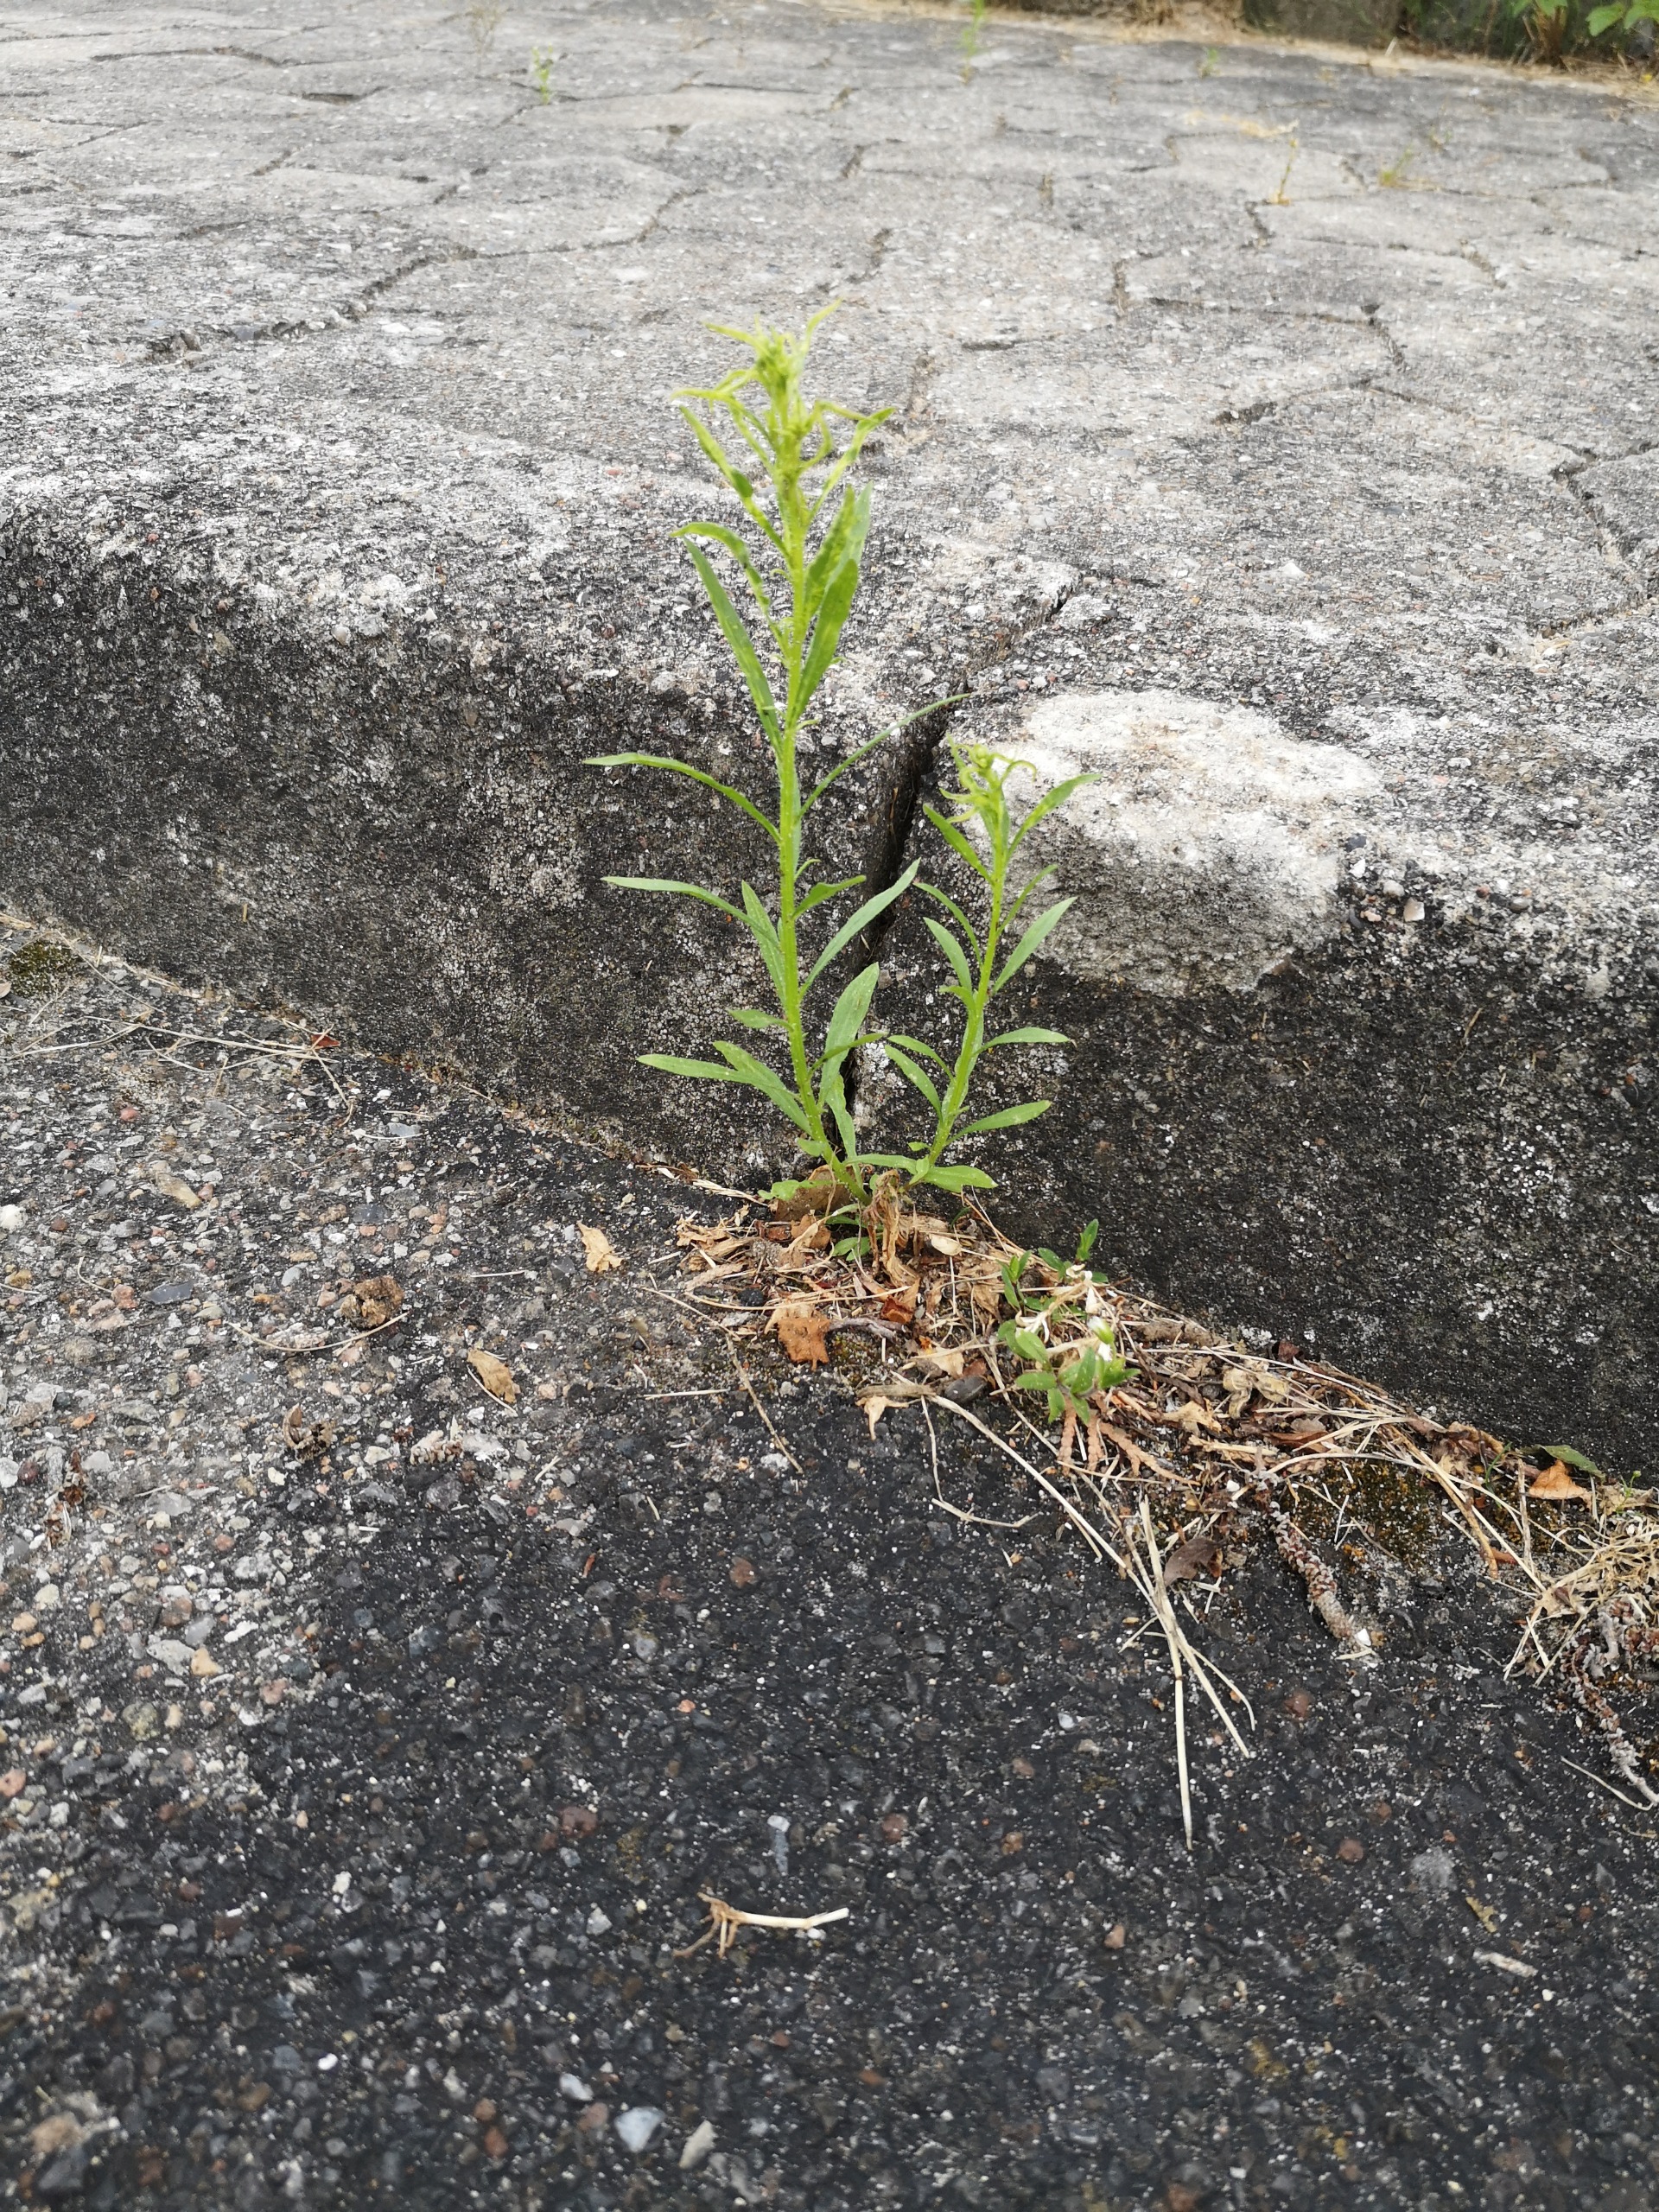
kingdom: Plantae
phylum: Tracheophyta
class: Magnoliopsida
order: Asterales
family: Asteraceae
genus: Erigeron
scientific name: Erigeron canadensis
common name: Kanadisk bakkestjerne
